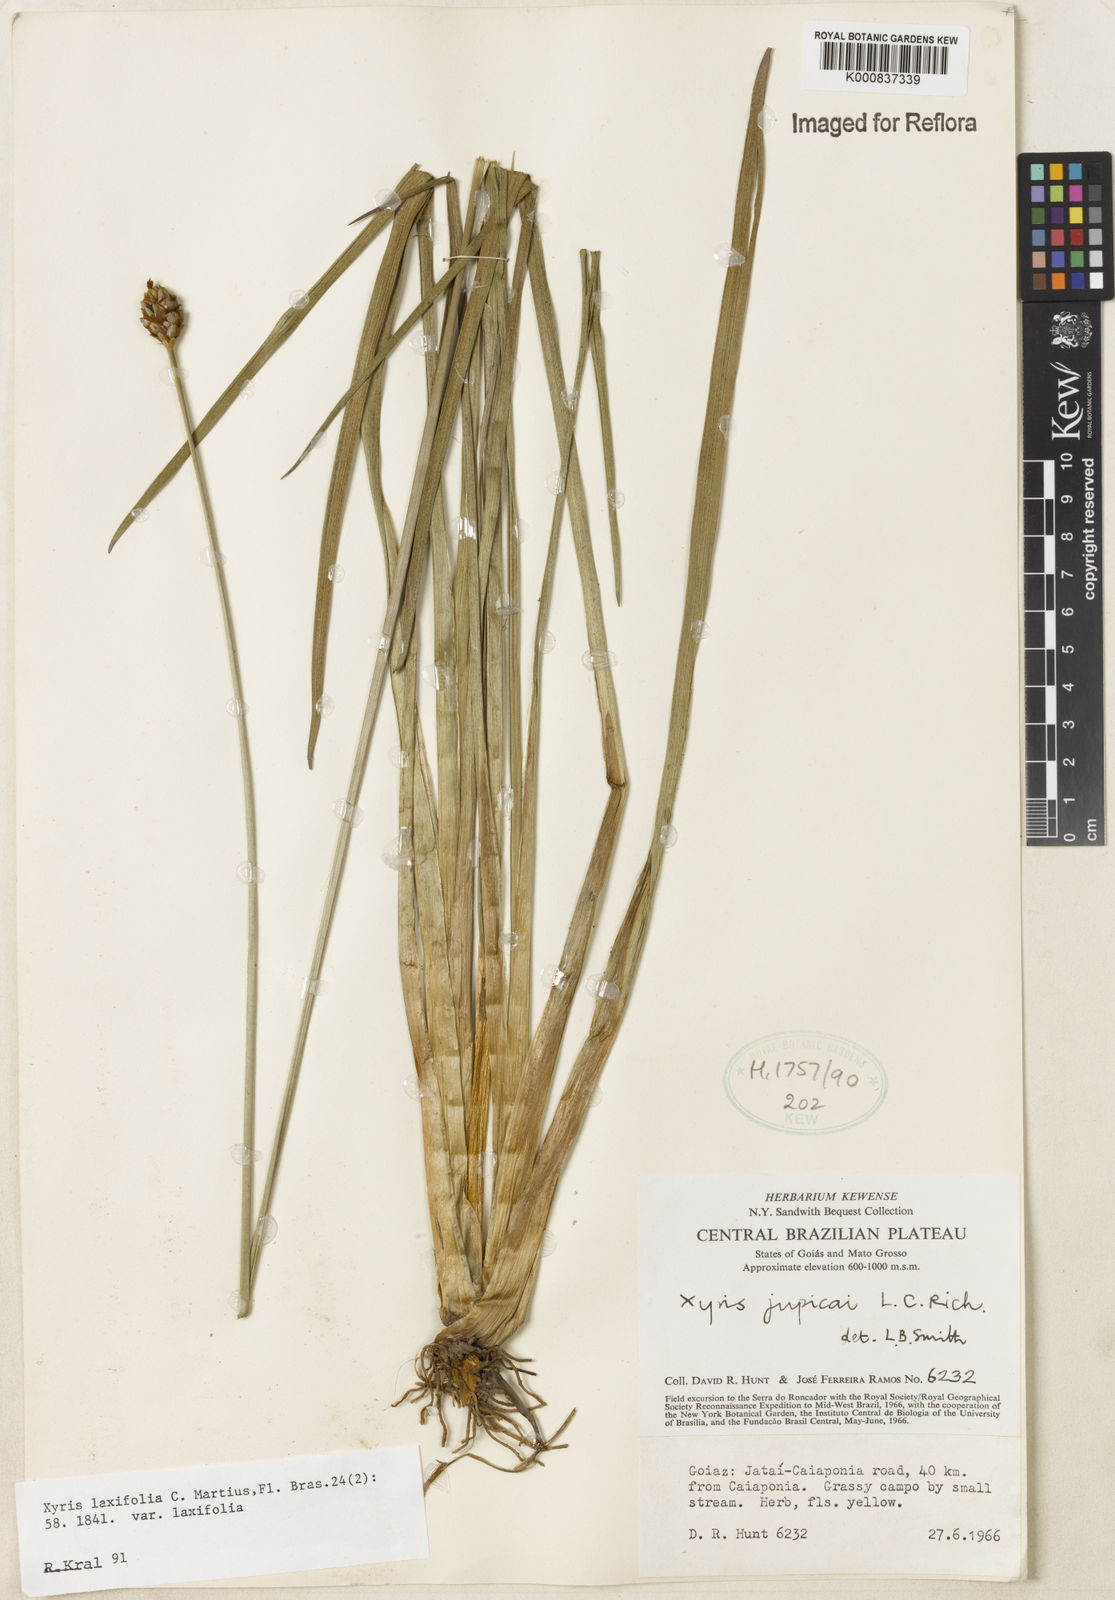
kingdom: Plantae
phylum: Tracheophyta
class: Liliopsida
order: Poales
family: Xyridaceae
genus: Xyris
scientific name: Xyris laxifolia
